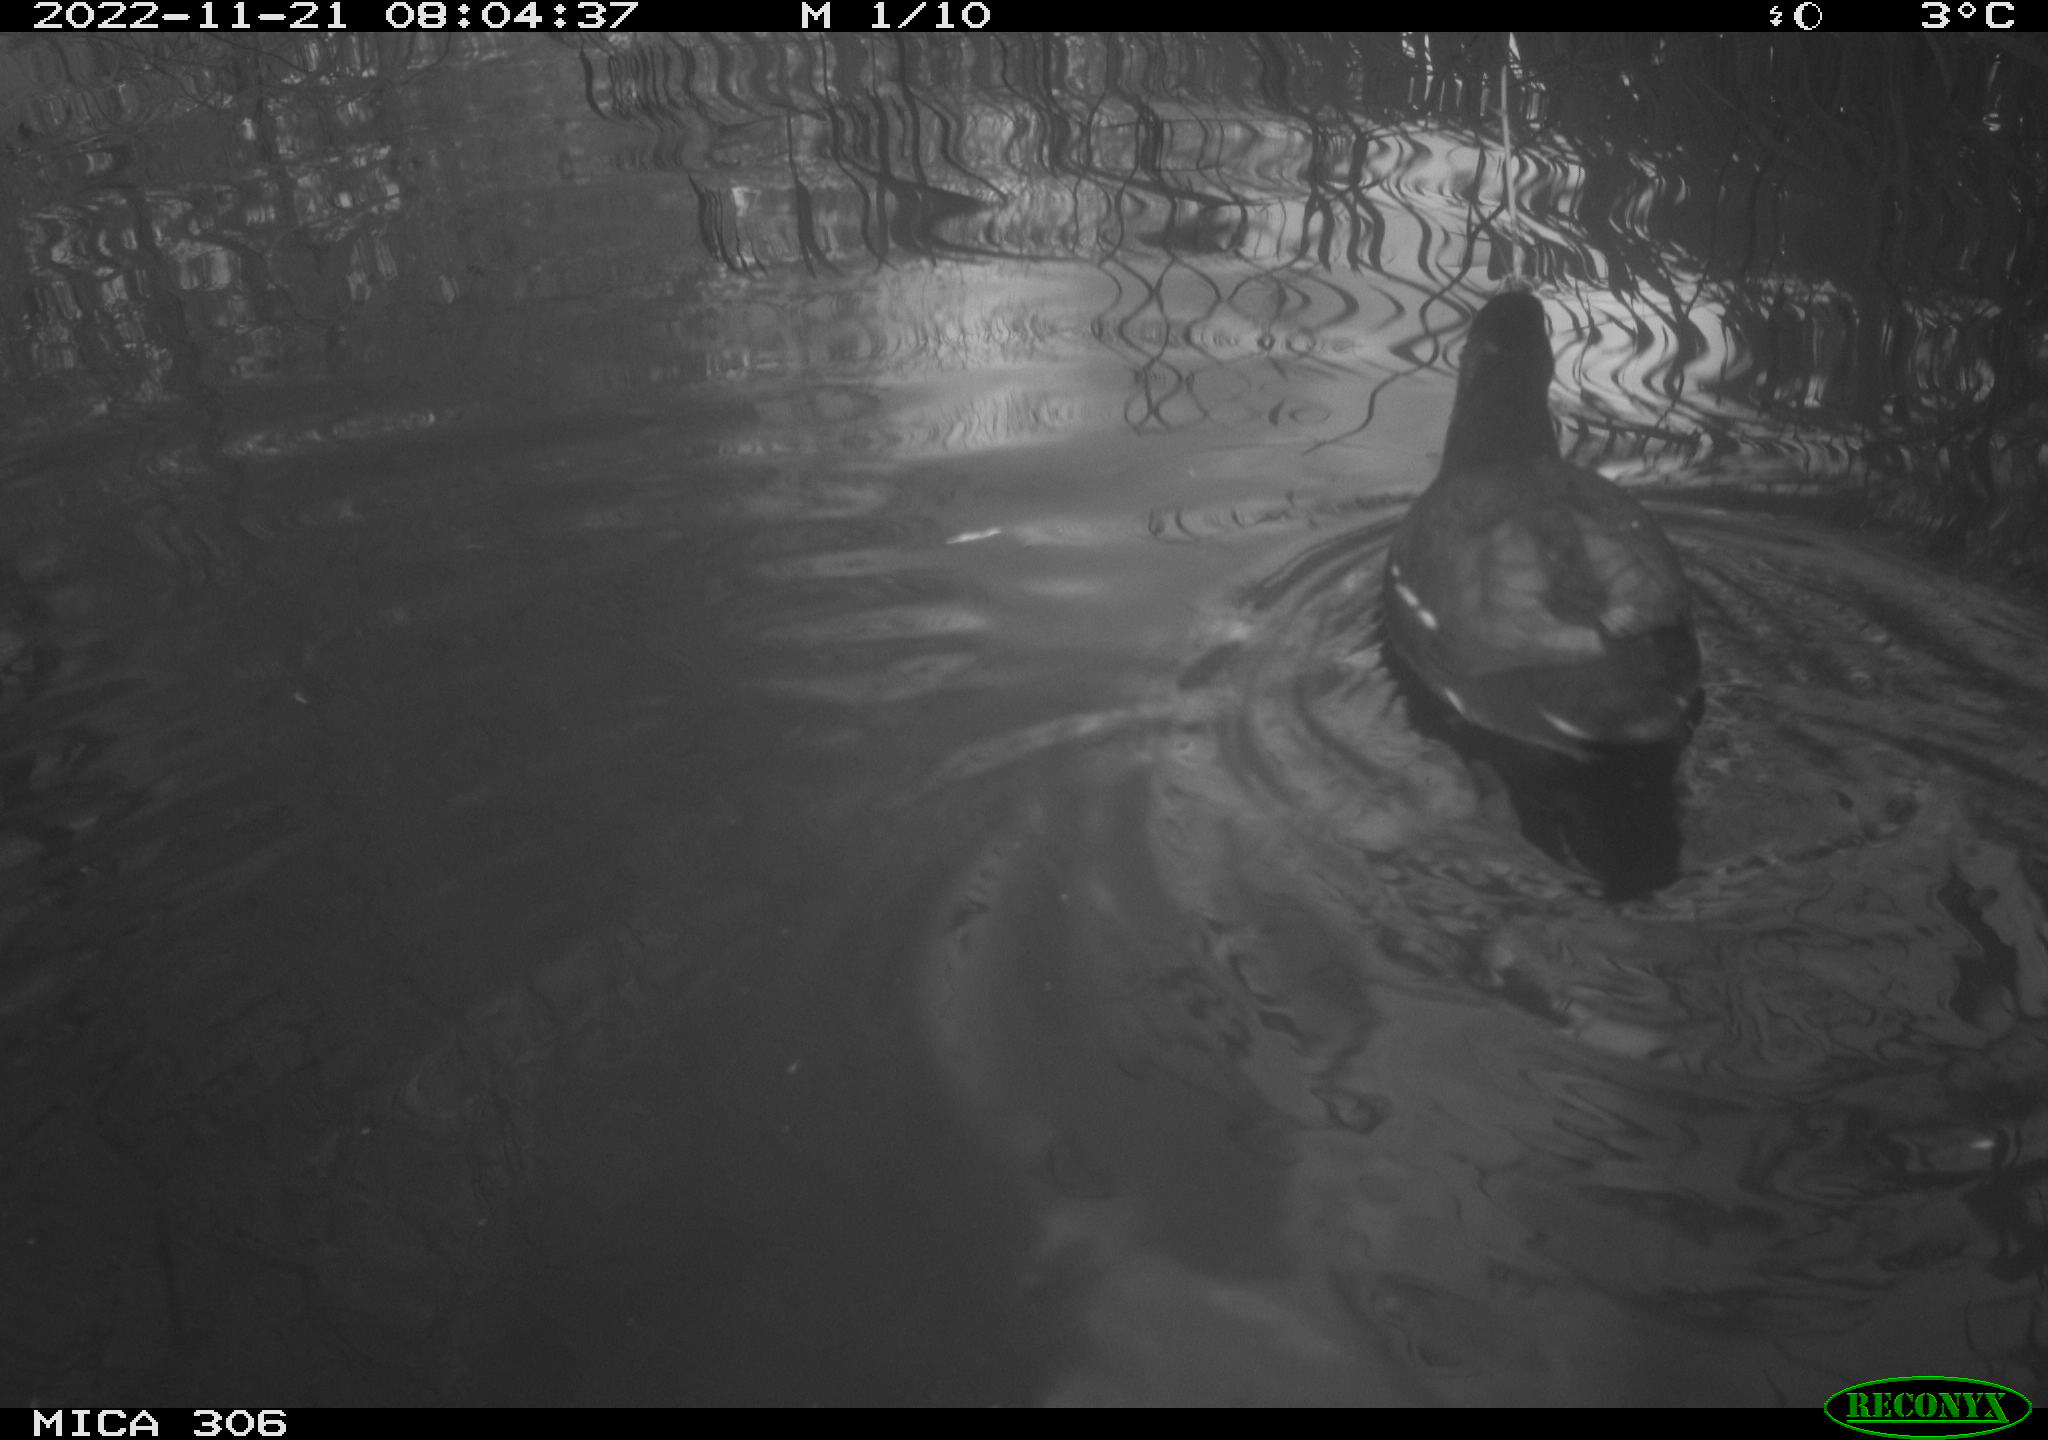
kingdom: Animalia
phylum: Chordata
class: Aves
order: Gruiformes
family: Rallidae
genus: Gallinula
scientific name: Gallinula chloropus
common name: Common moorhen
